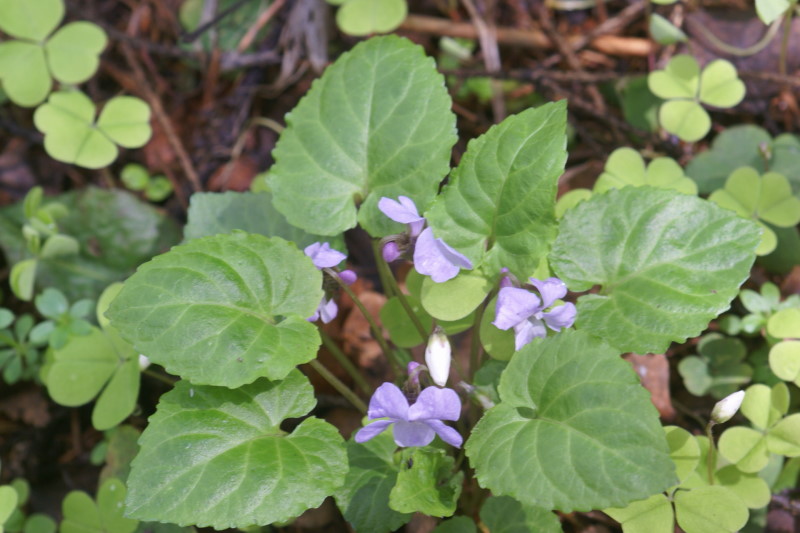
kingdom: Plantae
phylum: Tracheophyta
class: Magnoliopsida
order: Malpighiales
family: Violaceae
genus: Viola
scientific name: Viola
